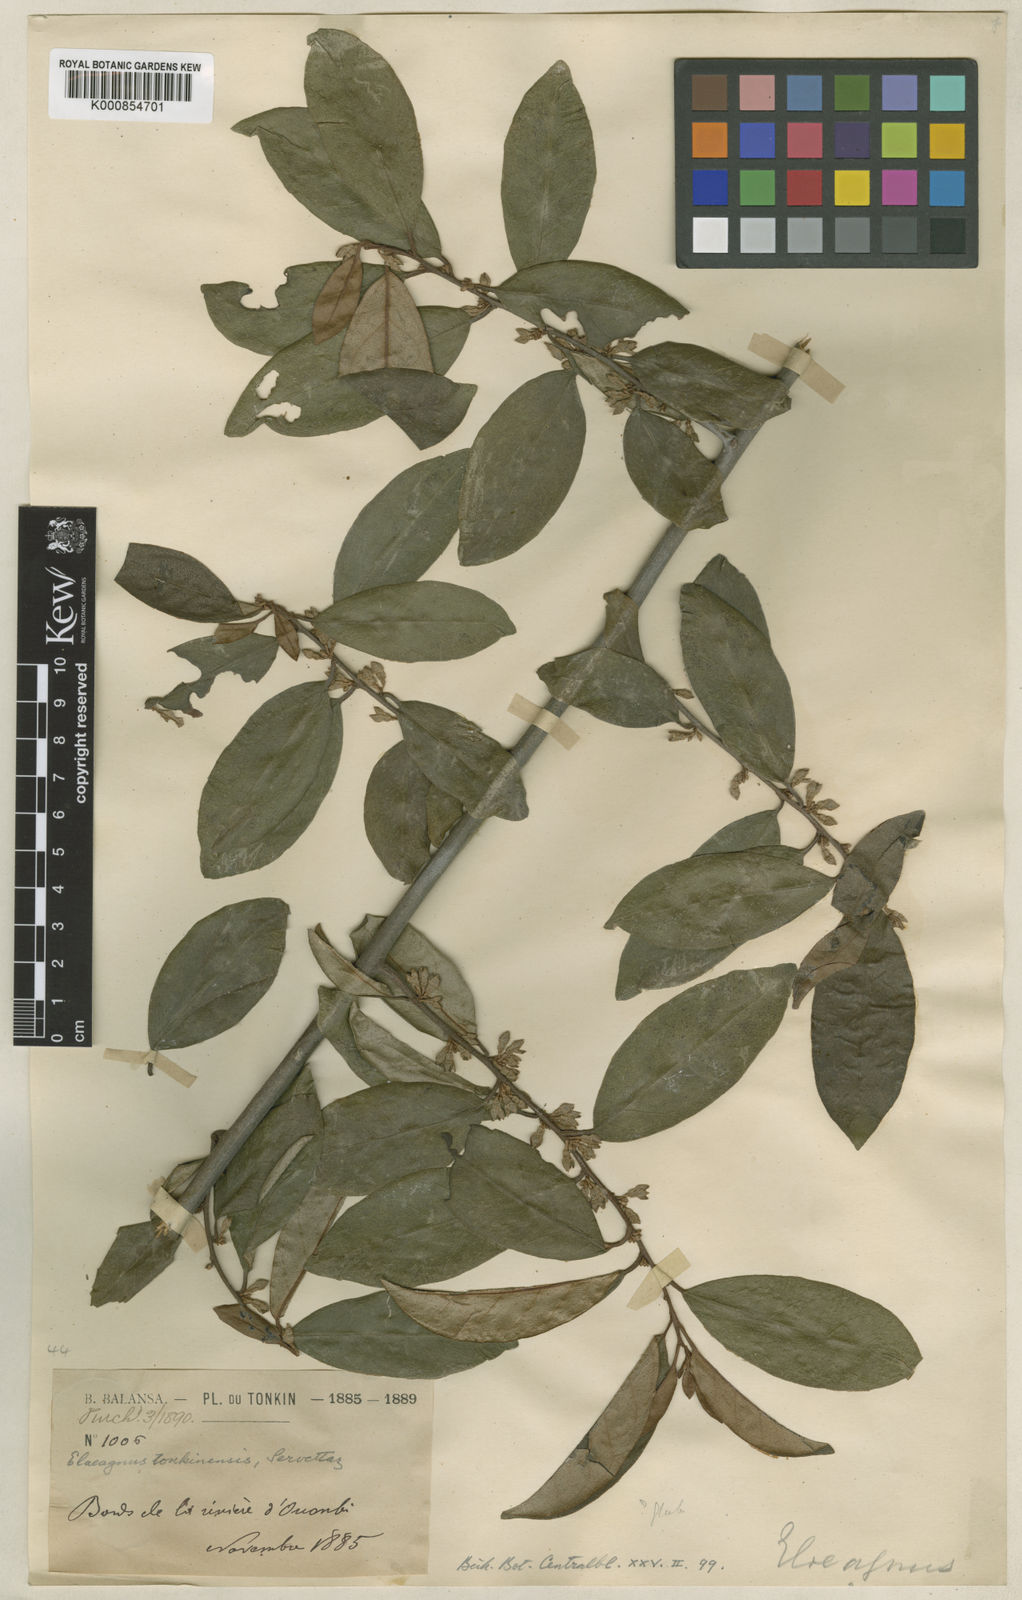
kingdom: Plantae
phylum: Tracheophyta
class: Magnoliopsida
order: Rosales
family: Elaeagnaceae
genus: Elaeagnus
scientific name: Elaeagnus tonkinensis
